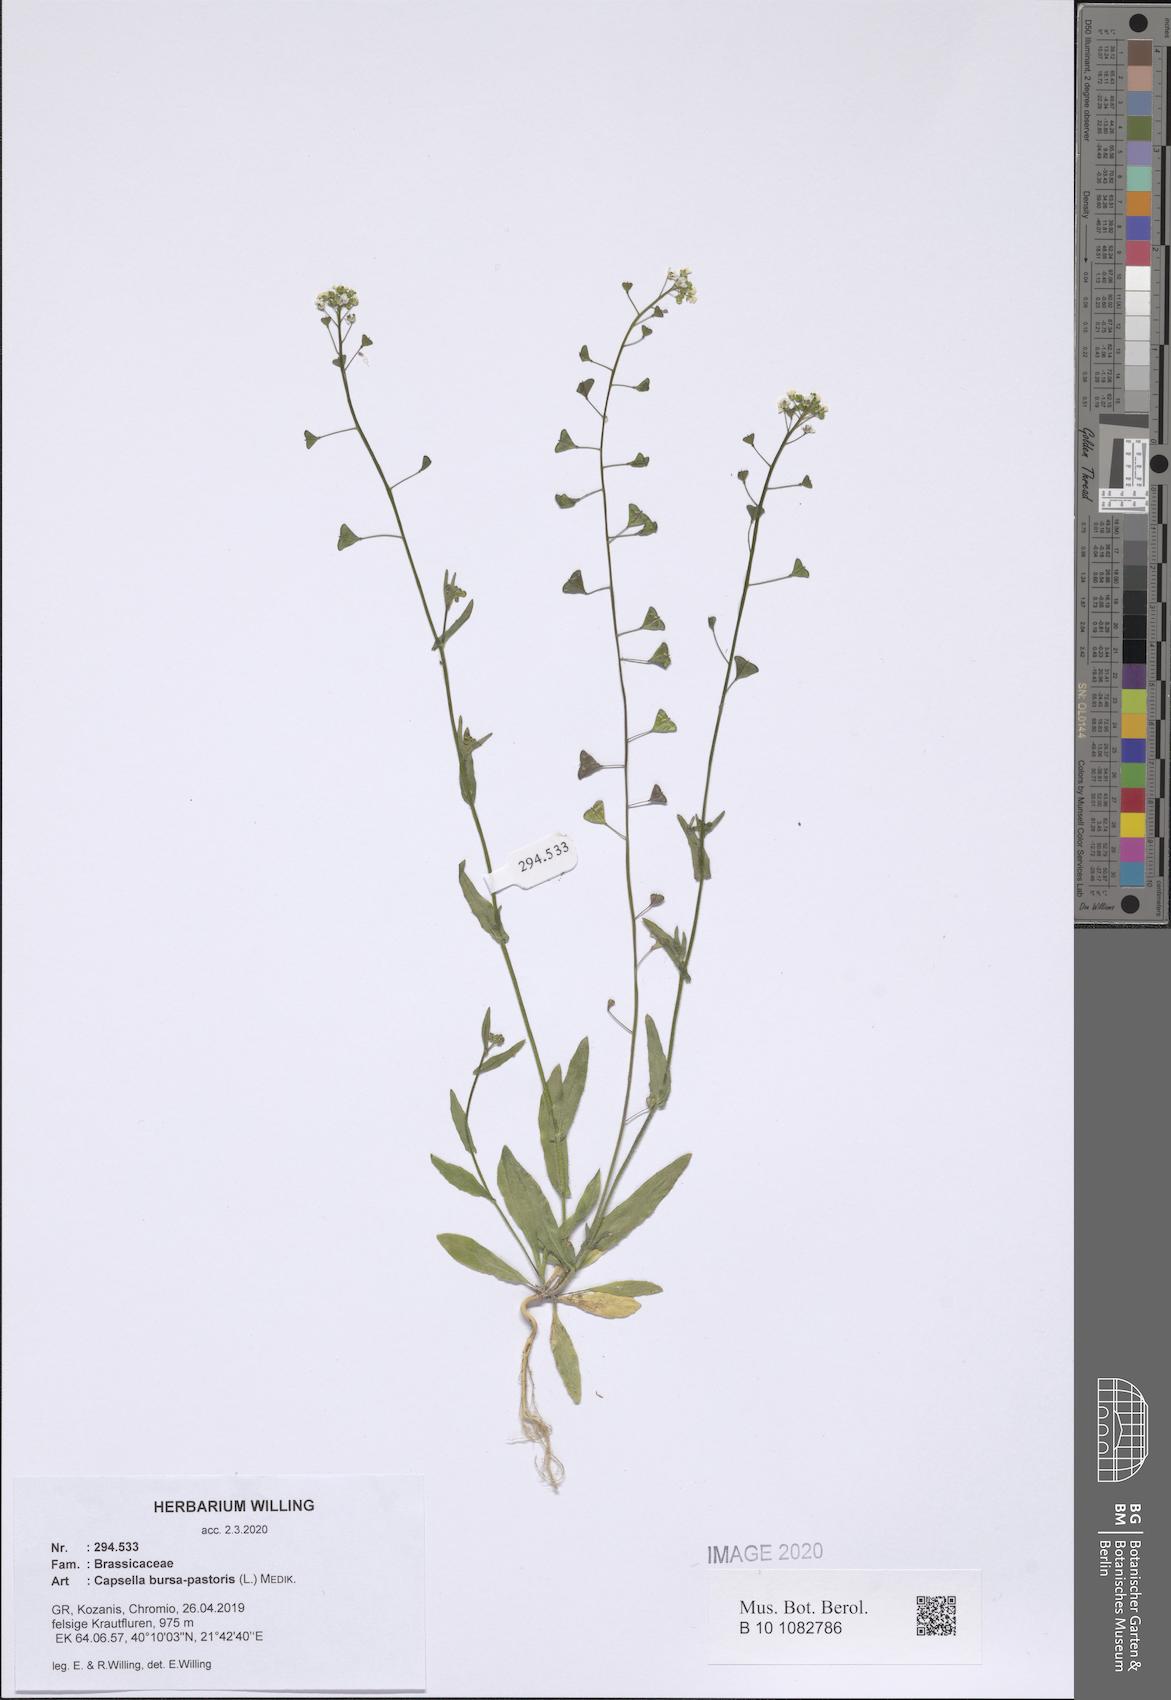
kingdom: Plantae
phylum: Tracheophyta
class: Magnoliopsida
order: Brassicales
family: Brassicaceae
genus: Capsella
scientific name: Capsella bursa-pastoris
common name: Shepherd's purse
